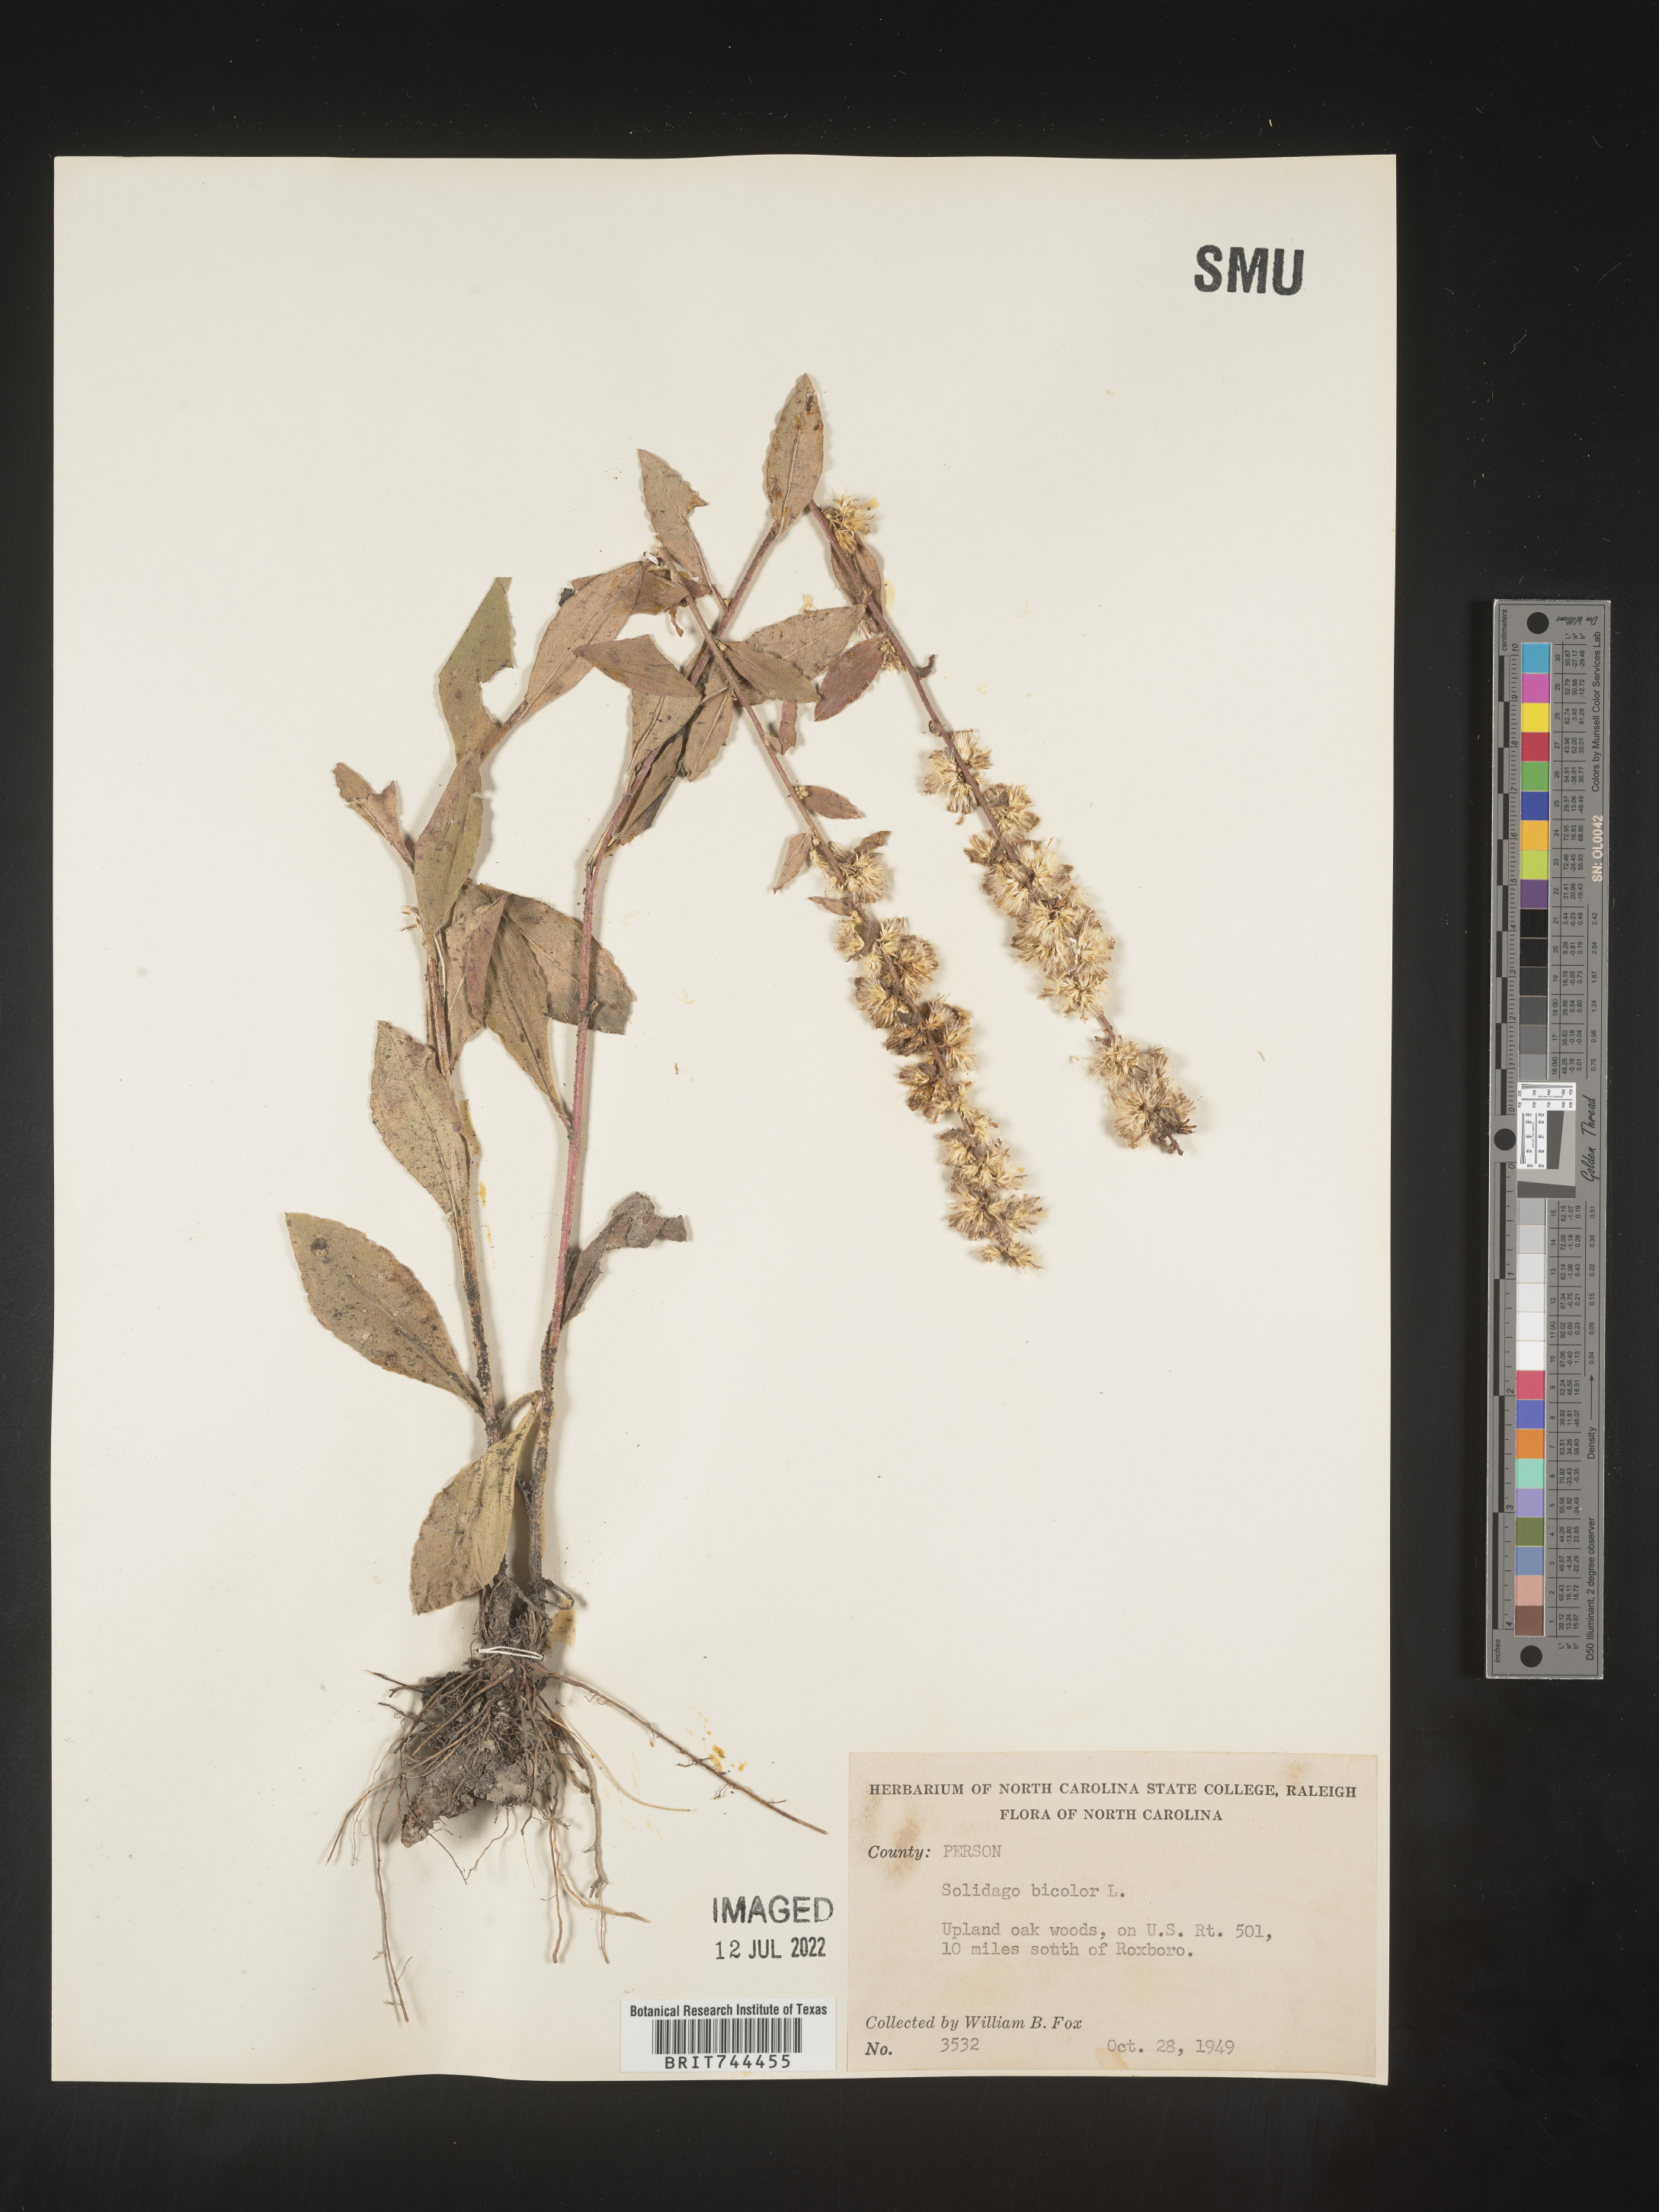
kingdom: Plantae
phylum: Tracheophyta
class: Magnoliopsida
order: Asterales
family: Asteraceae
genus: Solidago
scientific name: Solidago bicolor
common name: Silverrod
